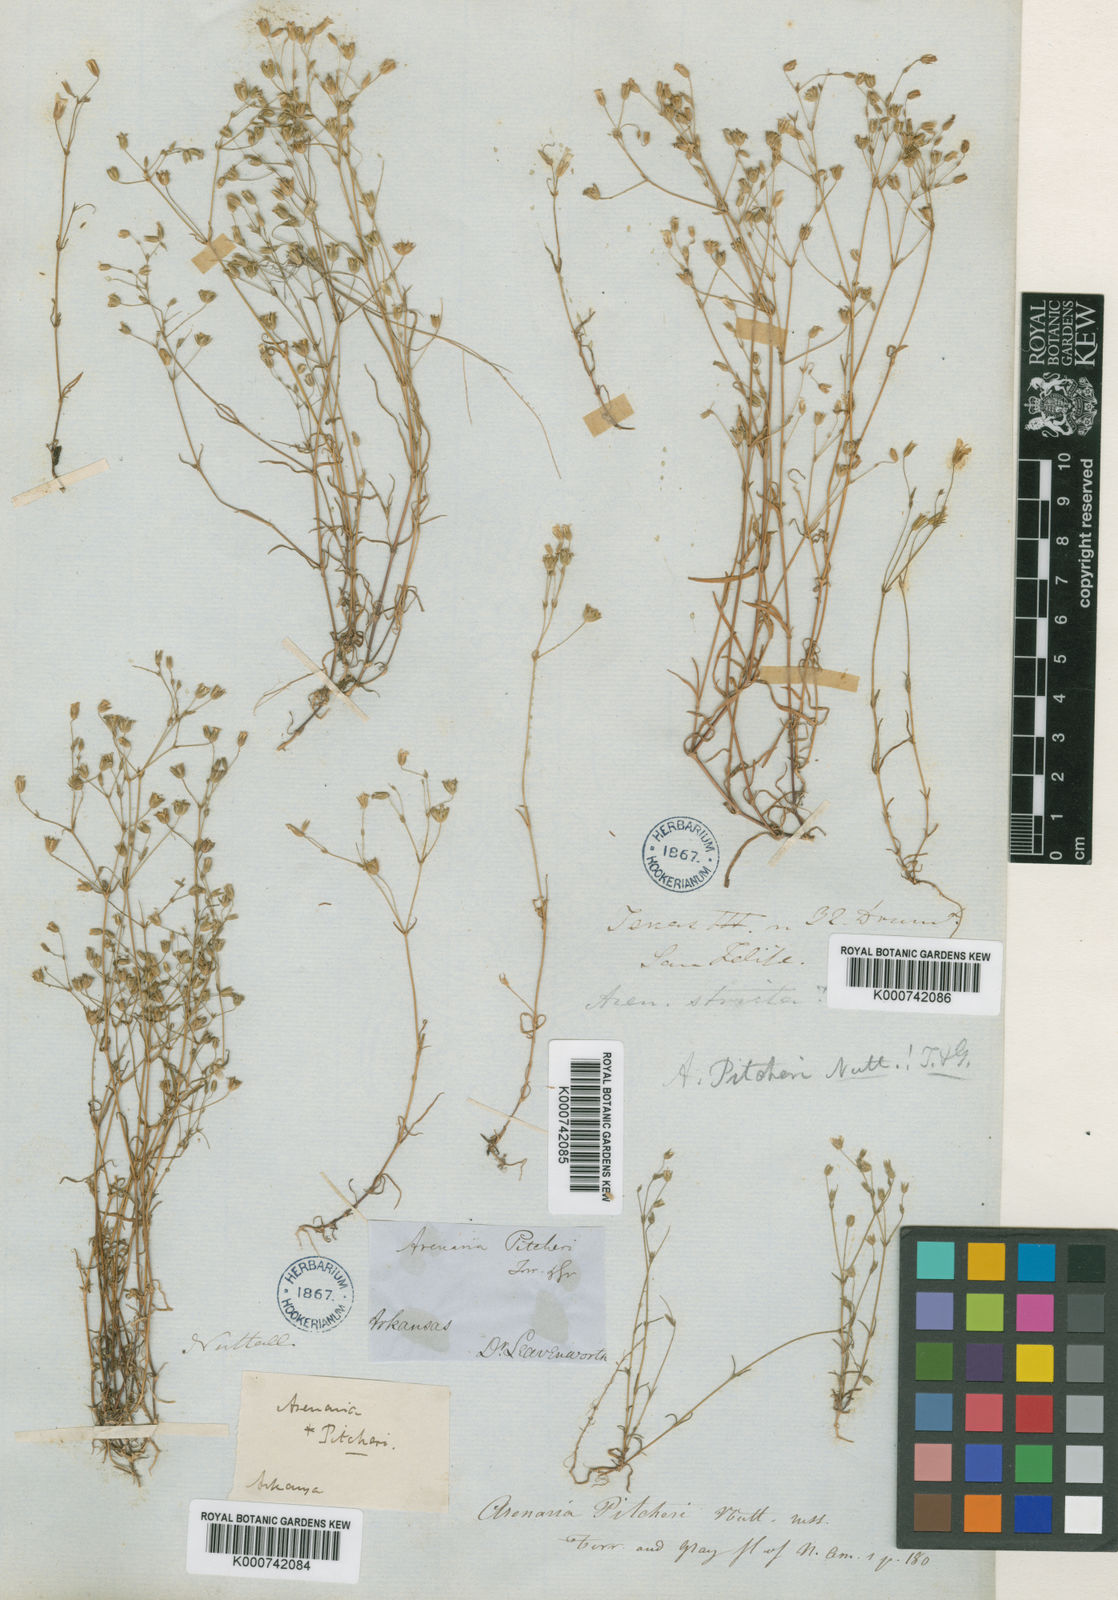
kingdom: Plantae
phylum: Tracheophyta
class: Magnoliopsida
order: Caryophyllales
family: Caryophyllaceae
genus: Mononeuria
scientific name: Mononeuria patula
